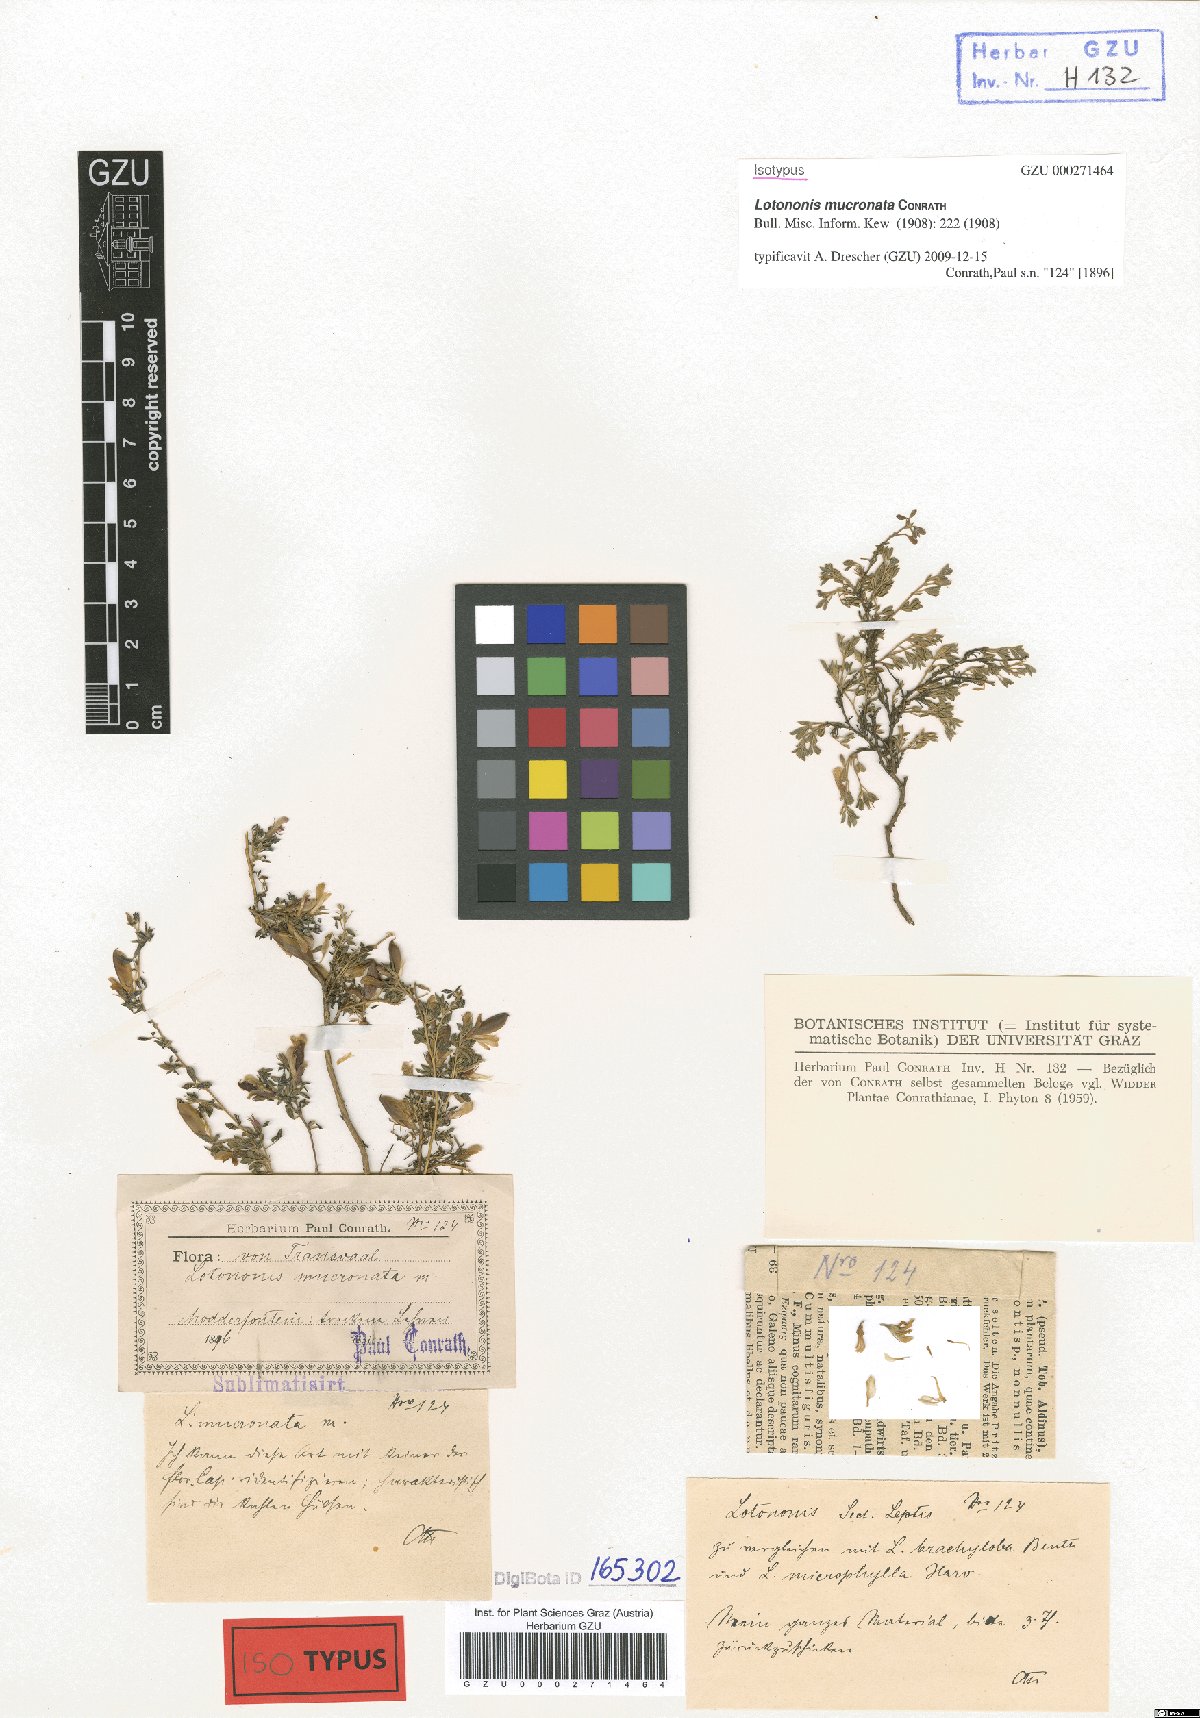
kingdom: Plantae
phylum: Tracheophyta
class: Magnoliopsida
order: Fabales
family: Fabaceae
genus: Leobordea
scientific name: Leobordea mucronata
